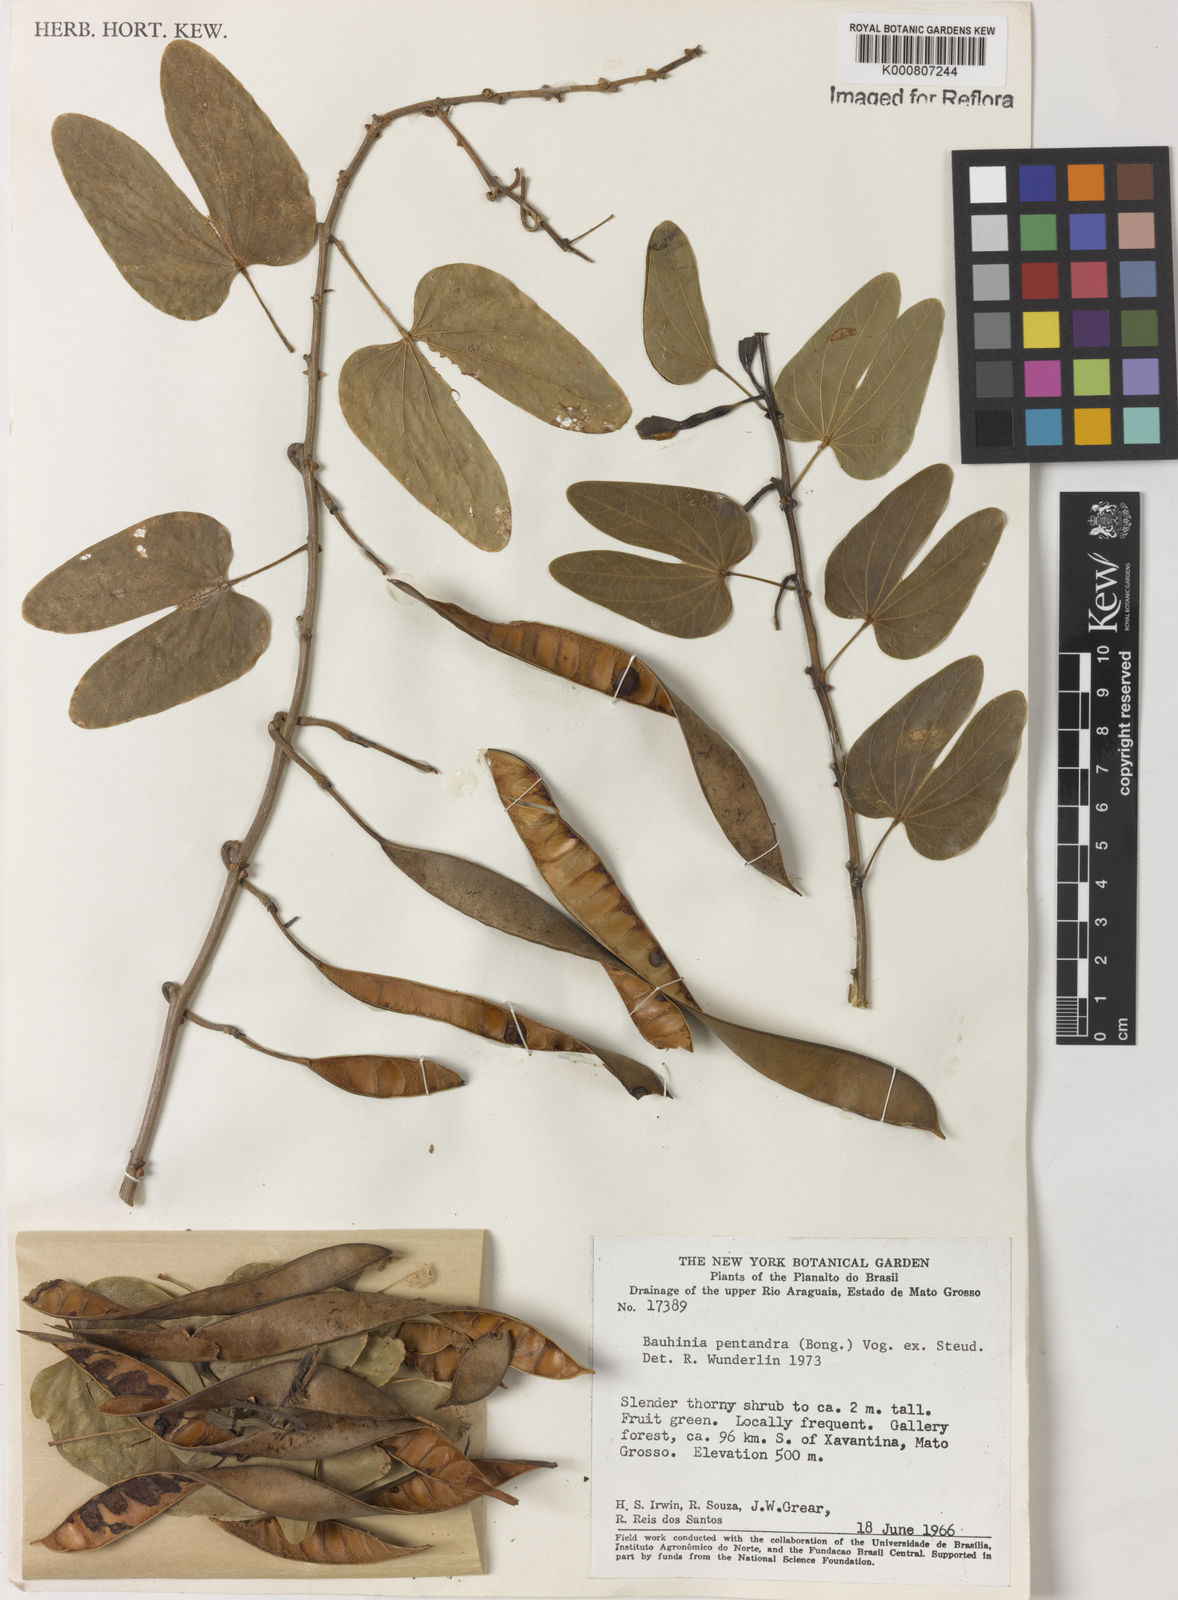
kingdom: Plantae
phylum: Tracheophyta
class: Magnoliopsida
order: Fabales
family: Fabaceae
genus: Bauhinia
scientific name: Bauhinia
